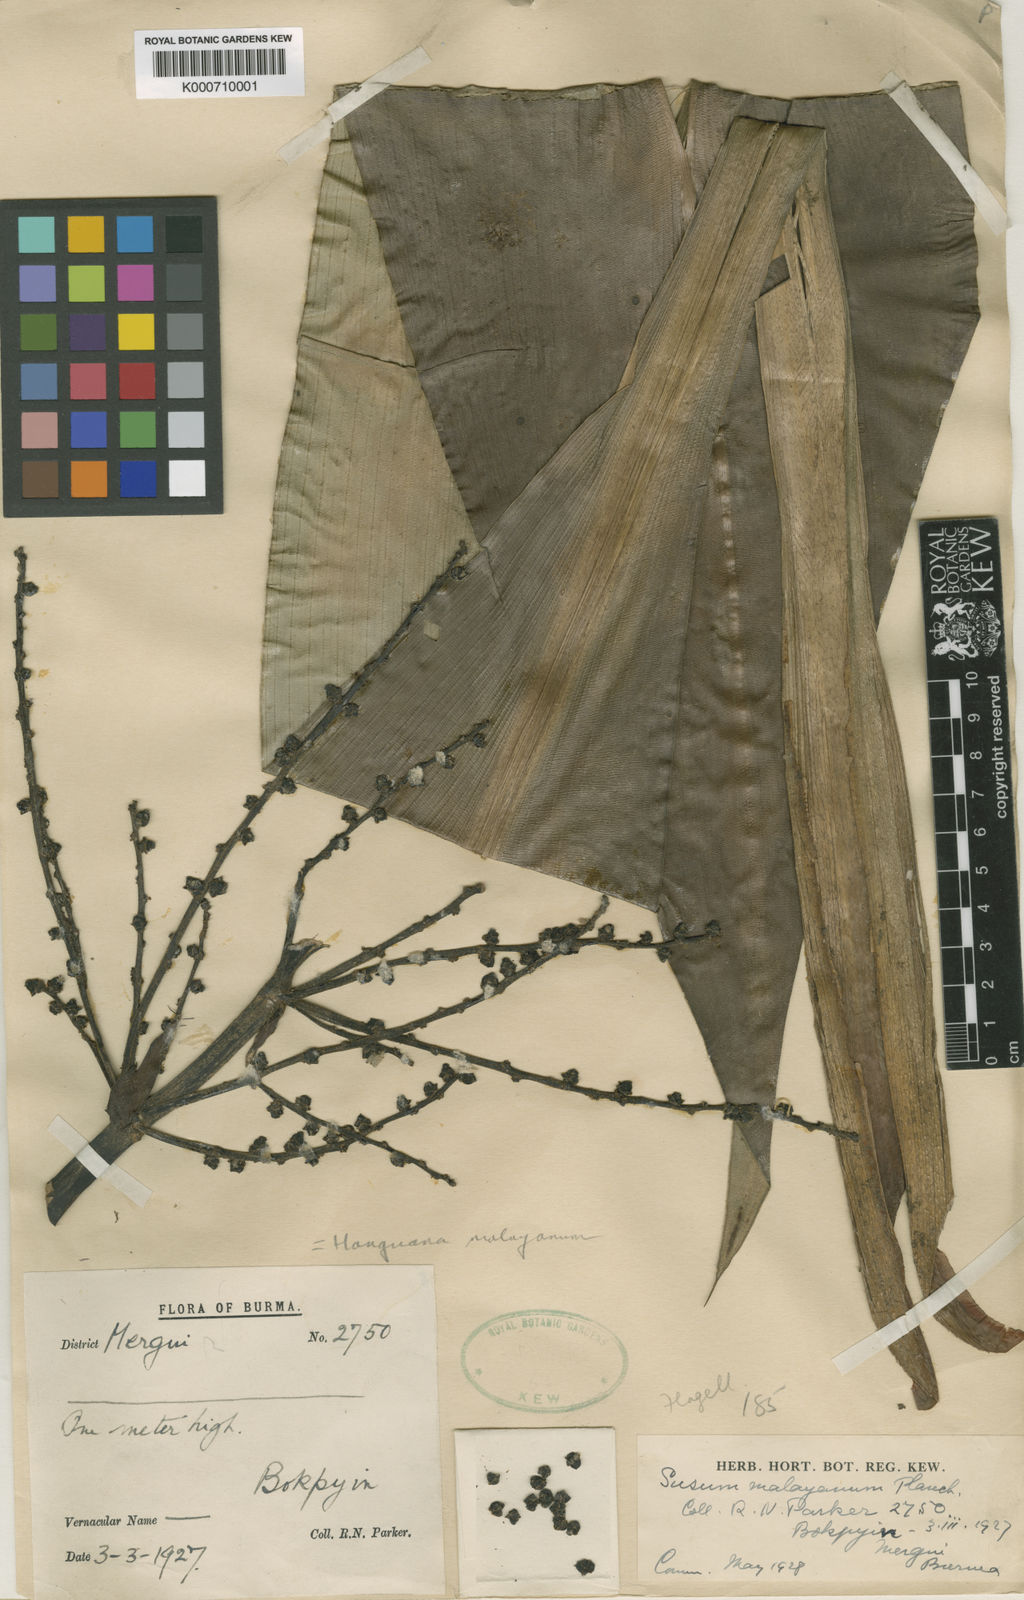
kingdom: Plantae
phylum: Tracheophyta
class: Liliopsida
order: Commelinales
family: Hanguanaceae
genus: Hanguana
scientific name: Hanguana malayana
